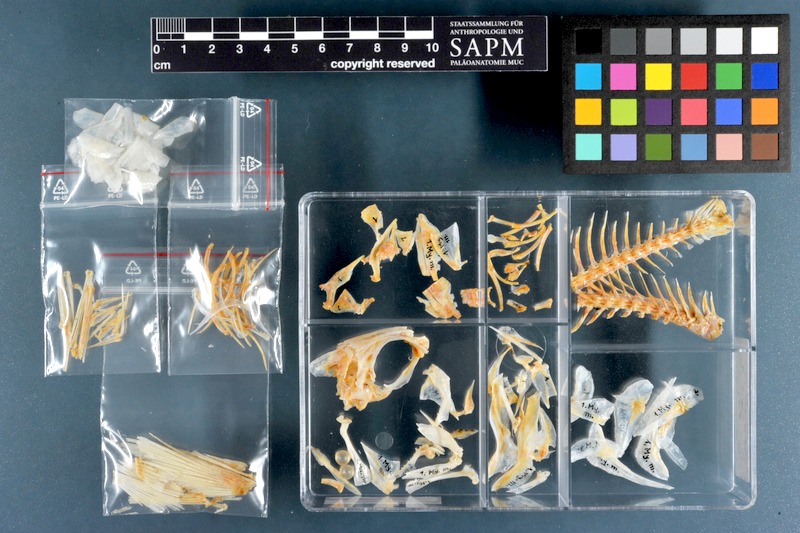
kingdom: Animalia
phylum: Chordata
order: Beryciformes
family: Holocentridae
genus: Myripristis
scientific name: Myripristis murdjan
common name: Big-eye soldierfish
